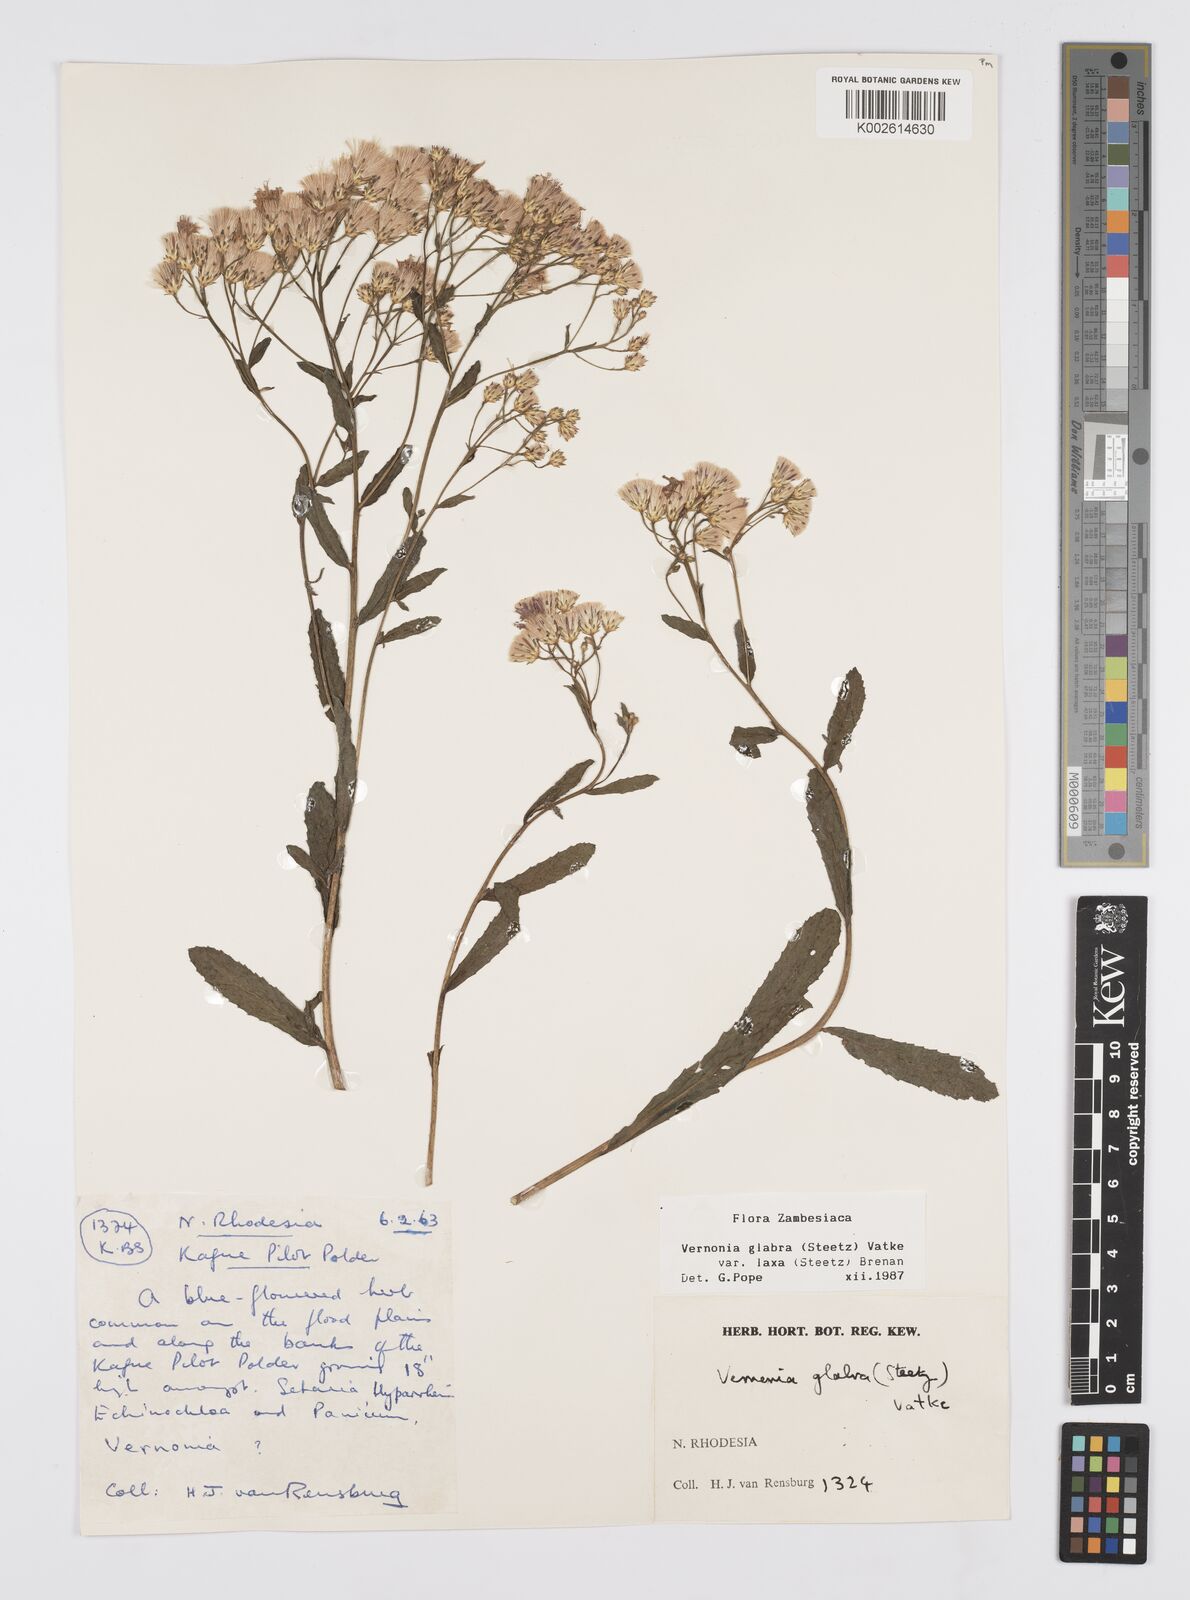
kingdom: Plantae
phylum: Tracheophyta
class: Magnoliopsida
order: Asterales
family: Asteraceae
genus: Linzia
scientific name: Linzia glabra
